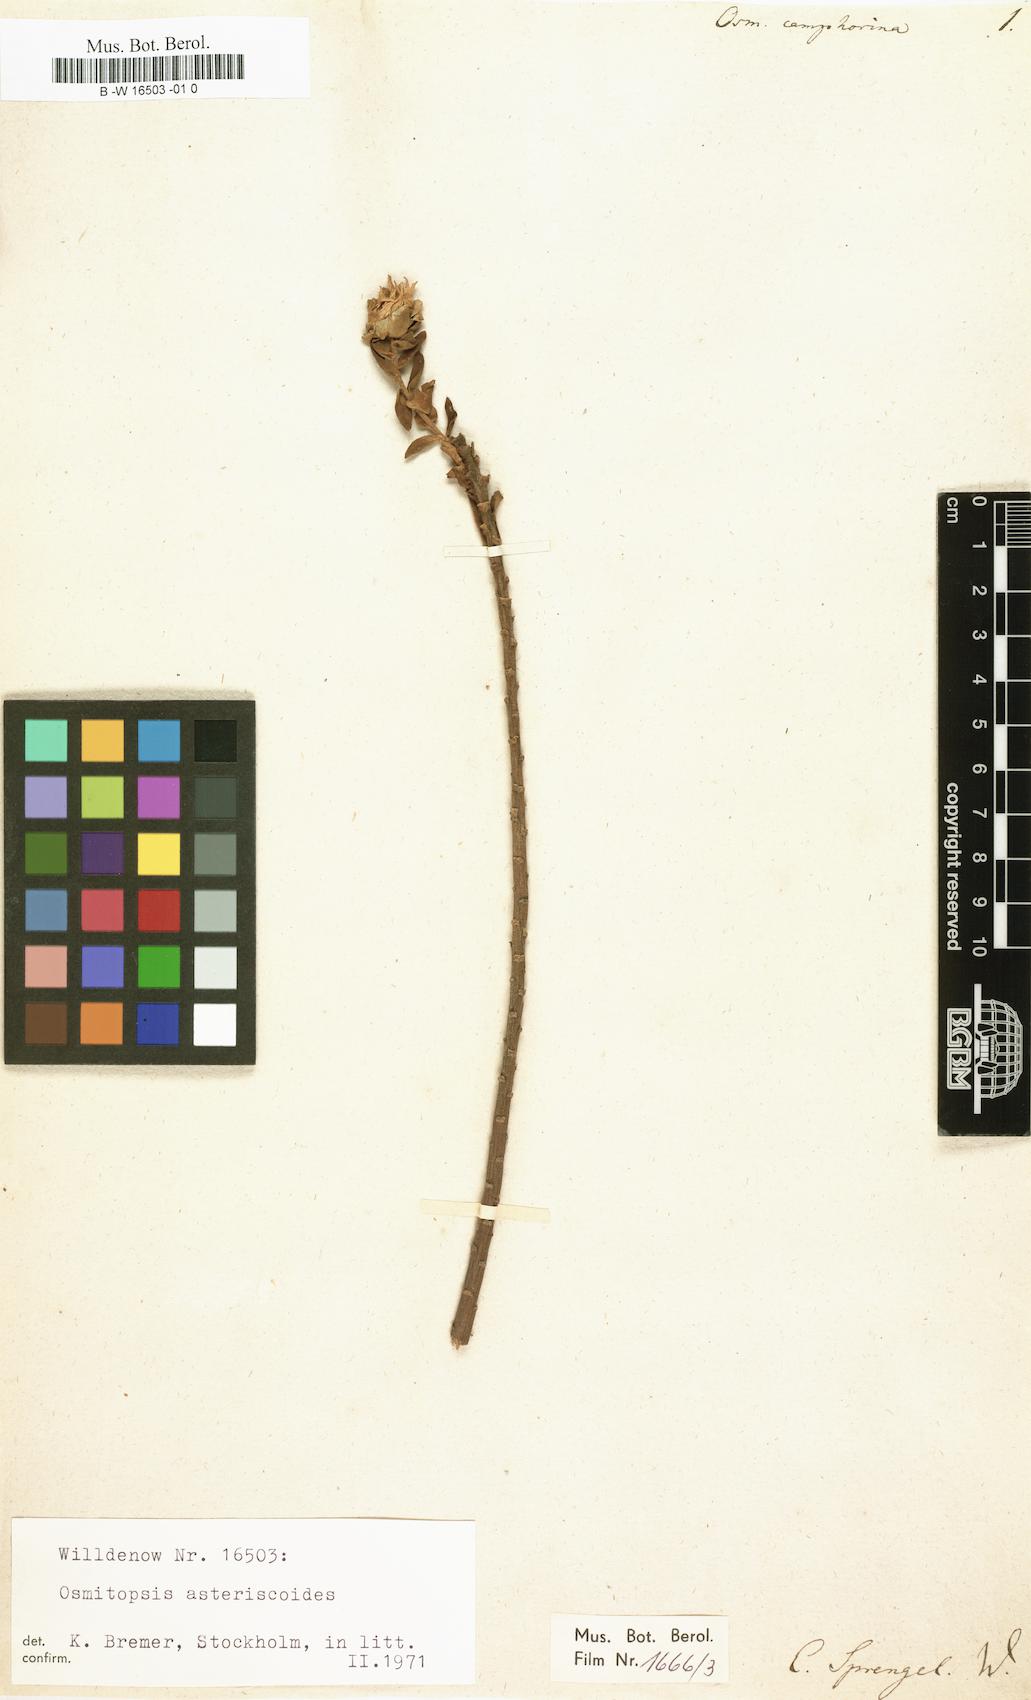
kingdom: Plantae
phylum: Tracheophyta
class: Magnoliopsida
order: Asterales
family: Asteraceae
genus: Osmitopsis
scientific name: Osmitopsis Osmites camphorina
